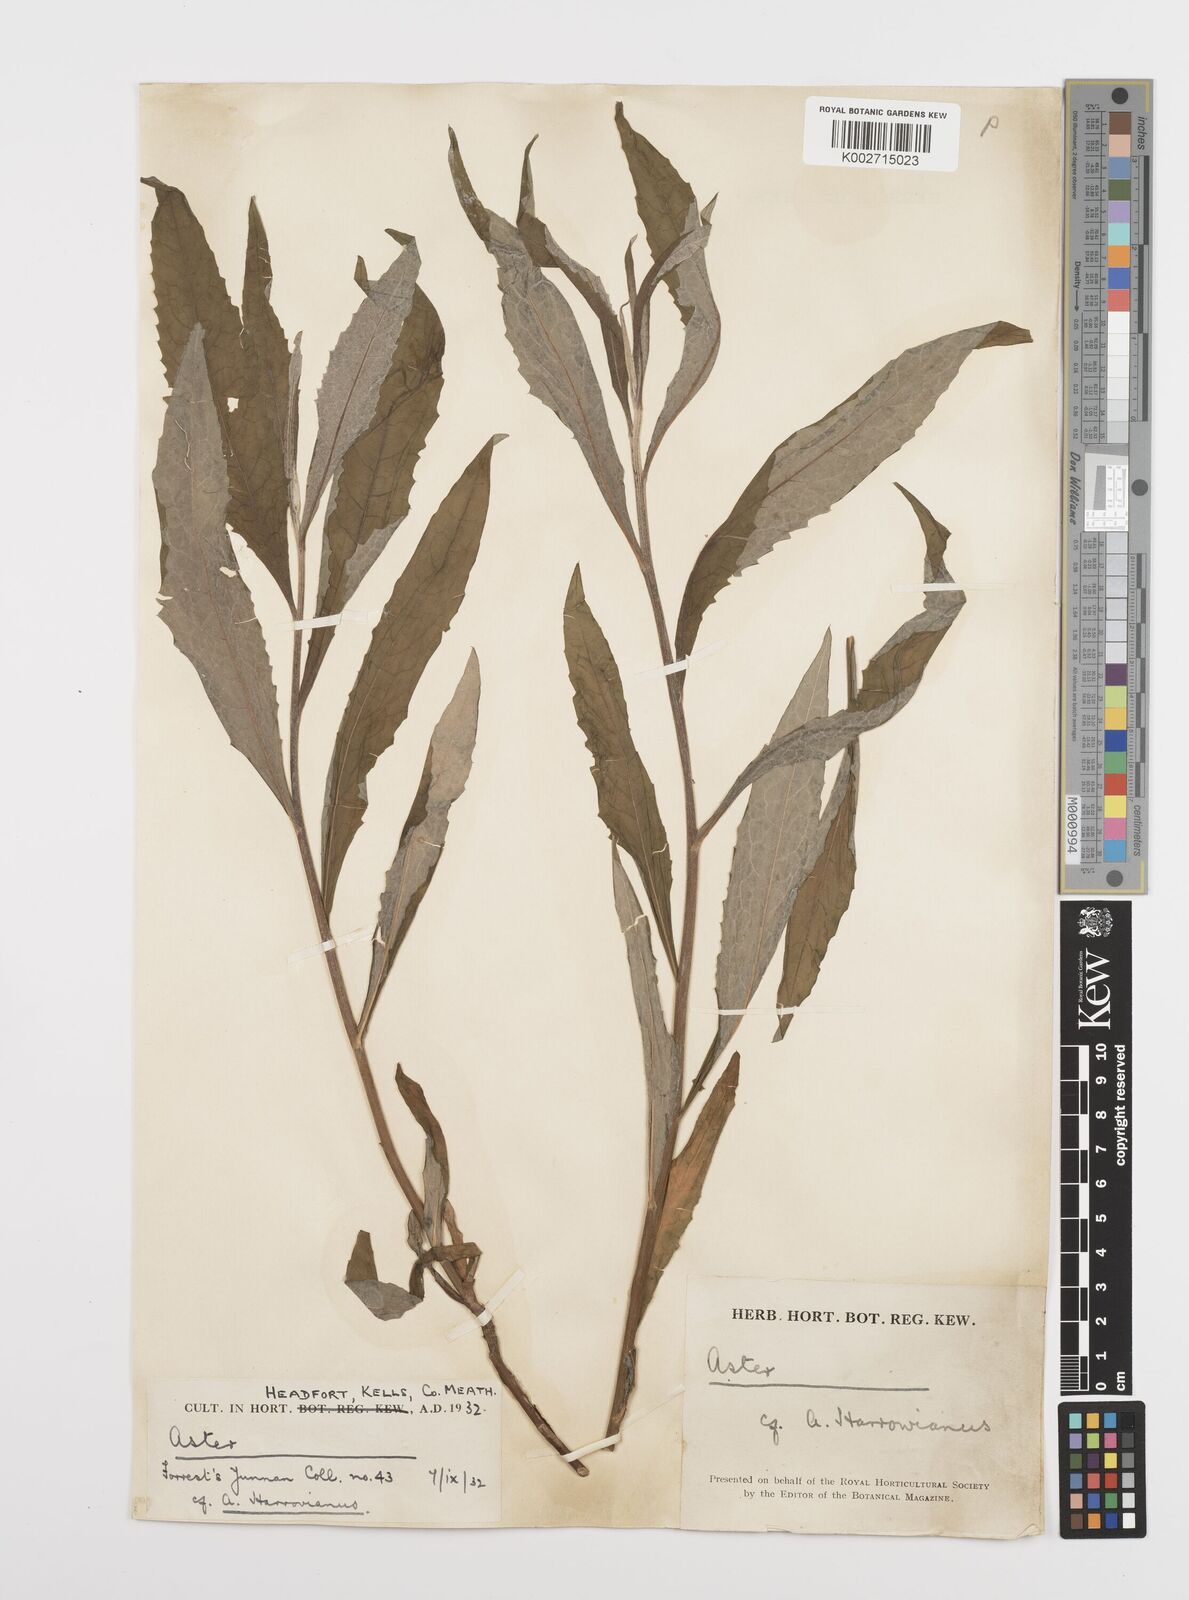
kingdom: Plantae
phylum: Tracheophyta
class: Magnoliopsida
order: Asterales
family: Asteraceae
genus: Sinosidus
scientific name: Sinosidus albescens
